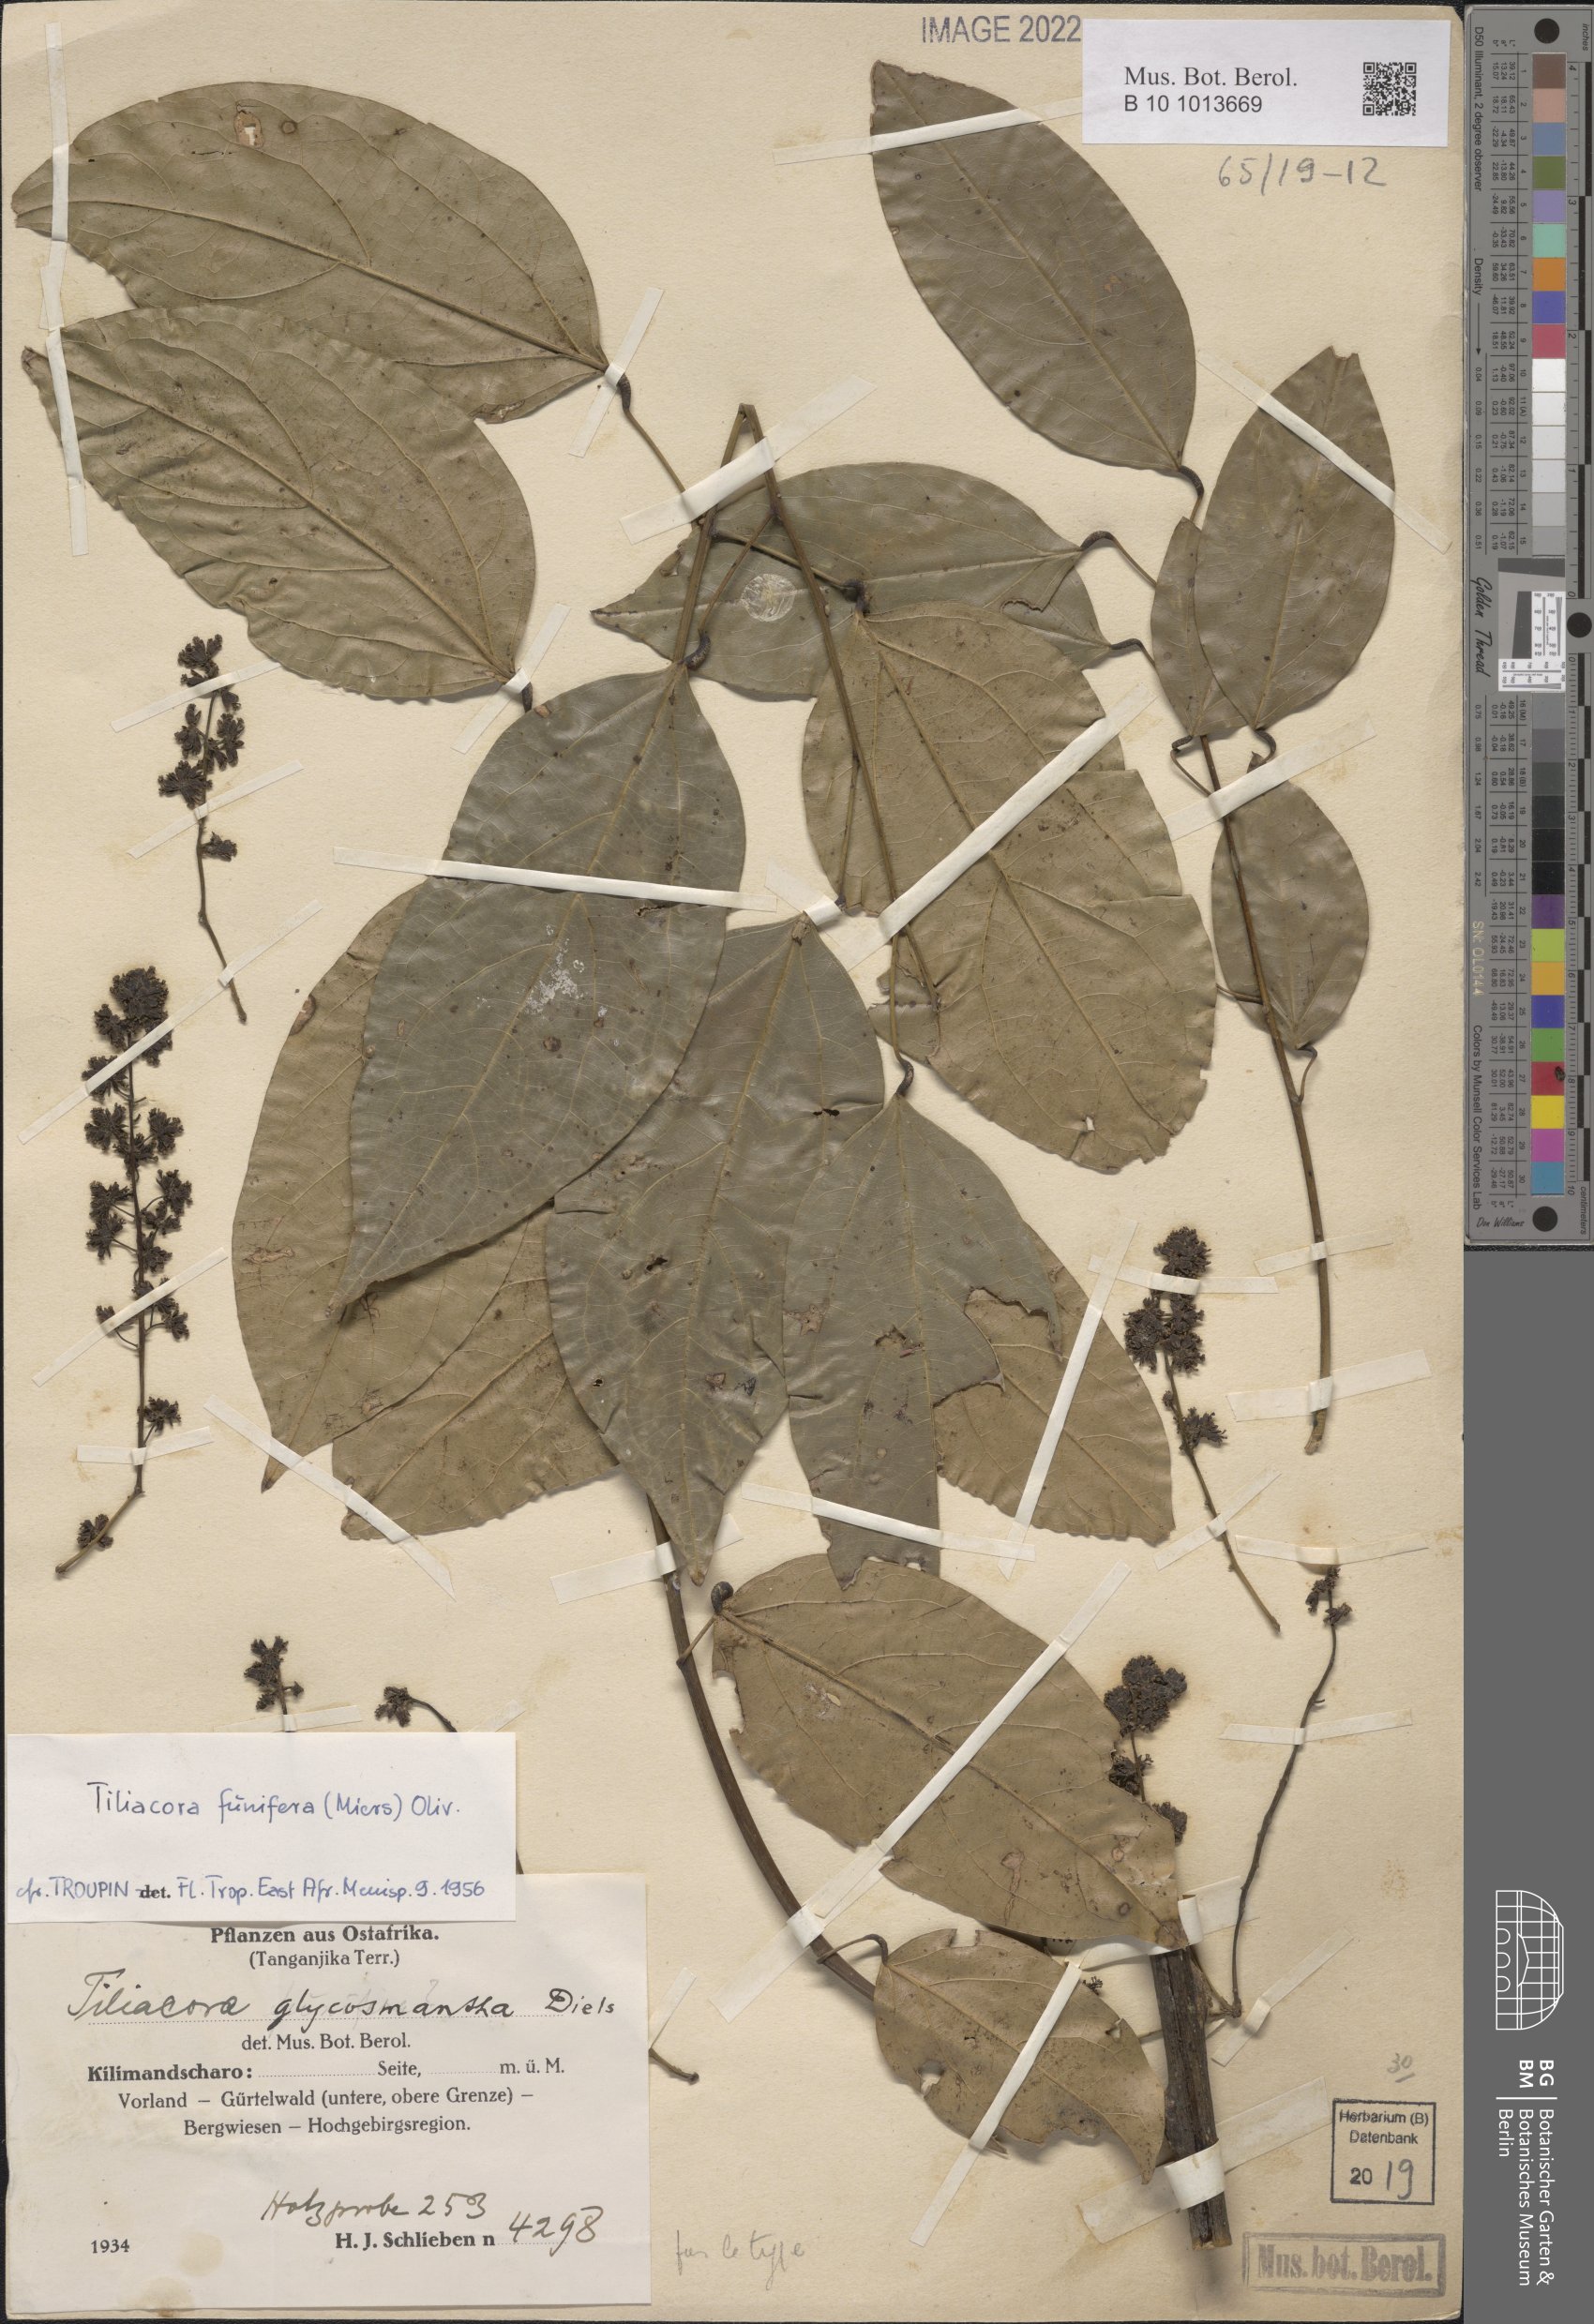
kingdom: Plantae
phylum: Tracheophyta
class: Magnoliopsida
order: Ranunculales
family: Menispermaceae
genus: Tiliacora
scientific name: Tiliacora funifera
